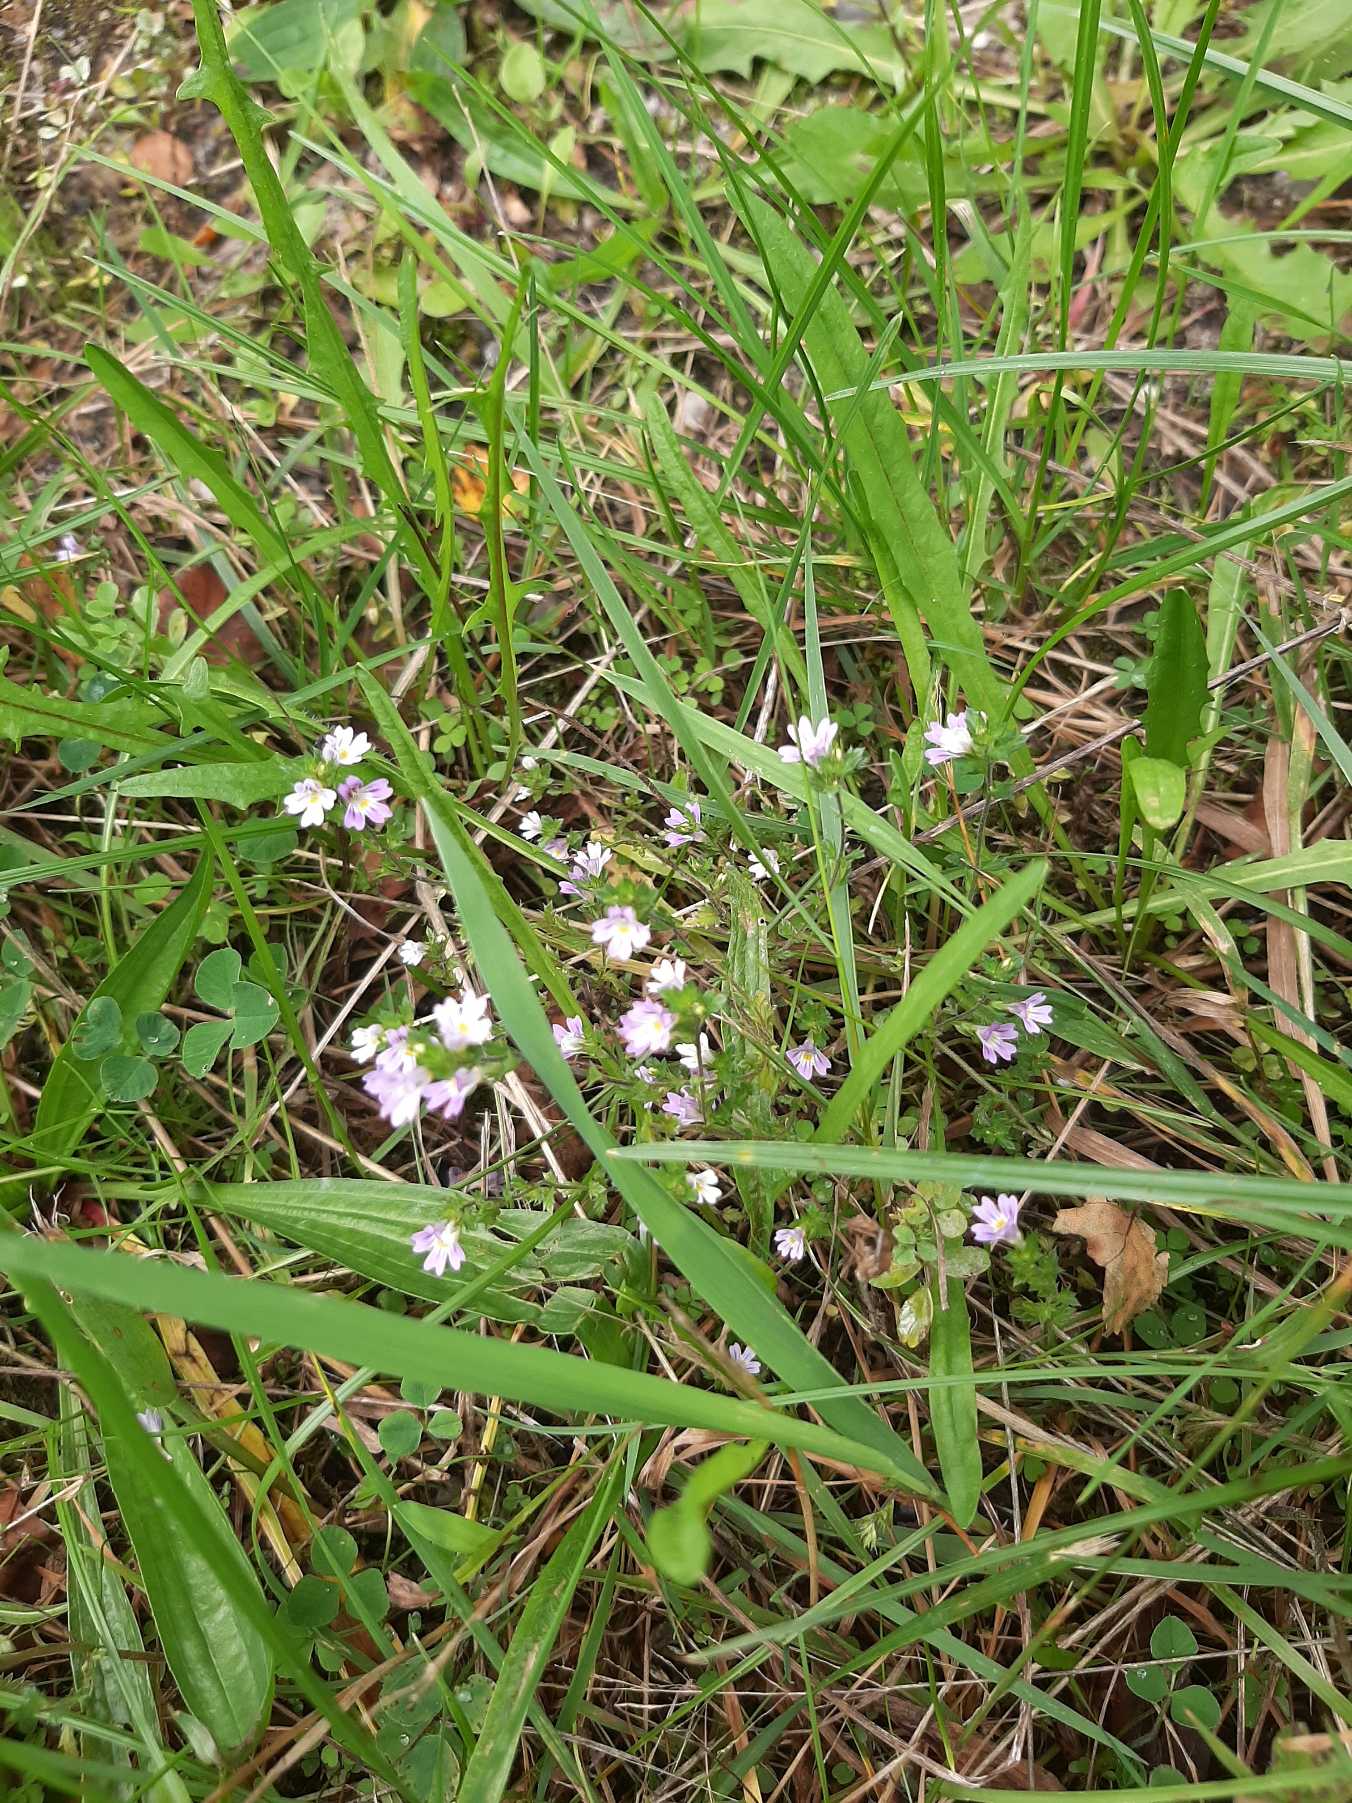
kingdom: Plantae
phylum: Tracheophyta
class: Magnoliopsida
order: Lamiales
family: Orobanchaceae
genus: Euphrasia
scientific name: Euphrasia stricta
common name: Spids øjentrøst
